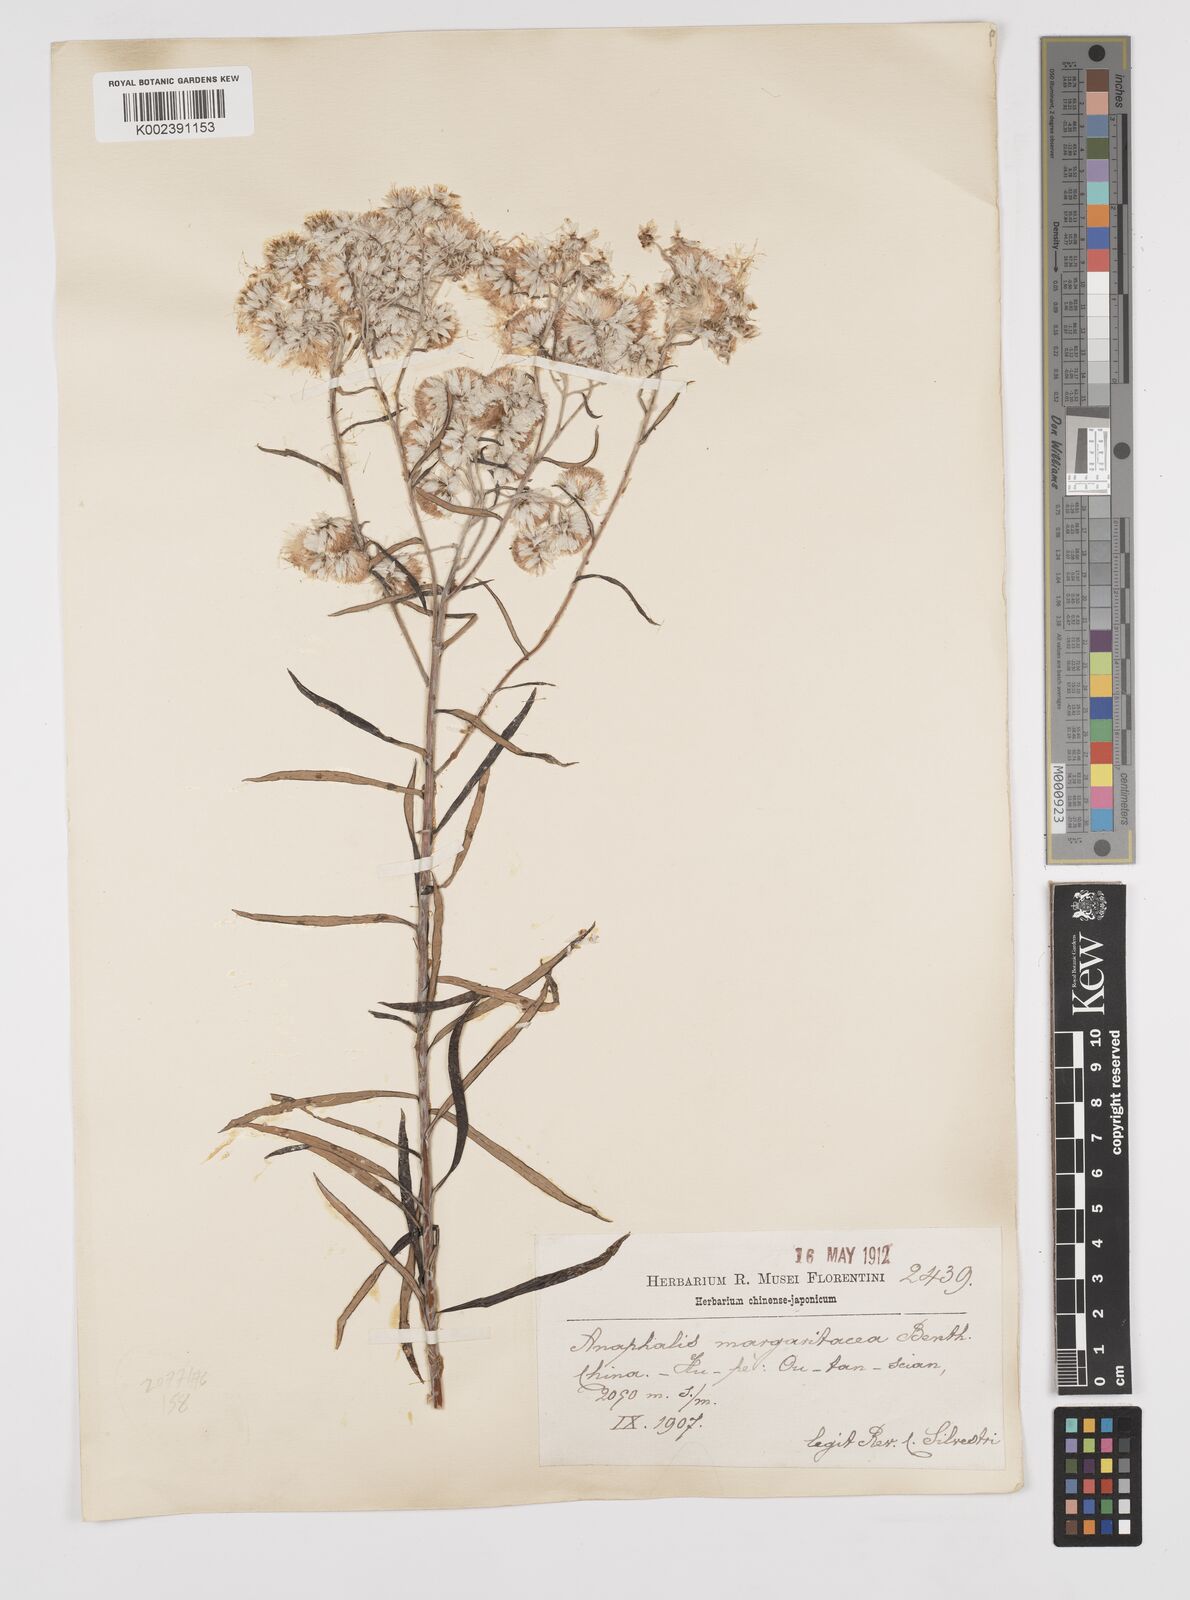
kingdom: Plantae
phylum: Tracheophyta
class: Magnoliopsida
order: Asterales
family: Asteraceae
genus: Anaphalis
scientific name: Anaphalis margaritacea
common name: Pearly everlasting
